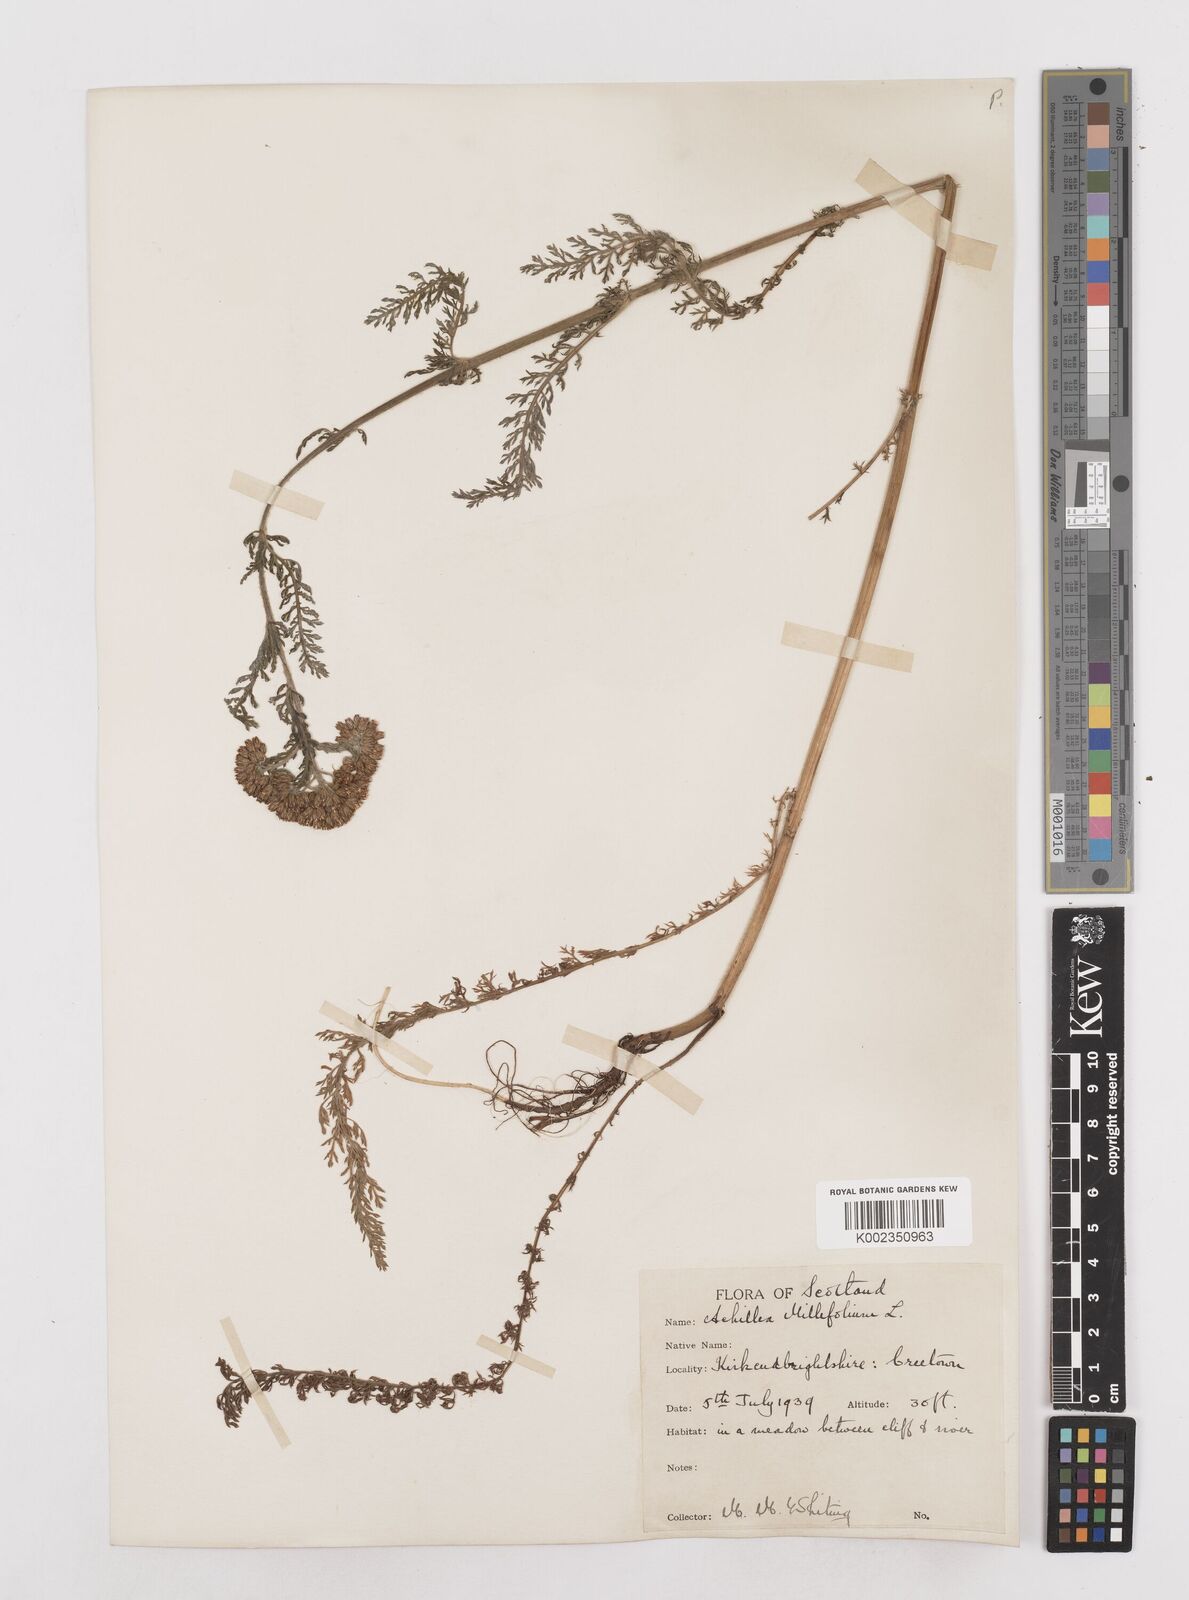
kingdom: Plantae
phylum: Tracheophyta
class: Magnoliopsida
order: Asterales
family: Asteraceae
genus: Achillea
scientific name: Achillea millefolium
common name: Yarrow
